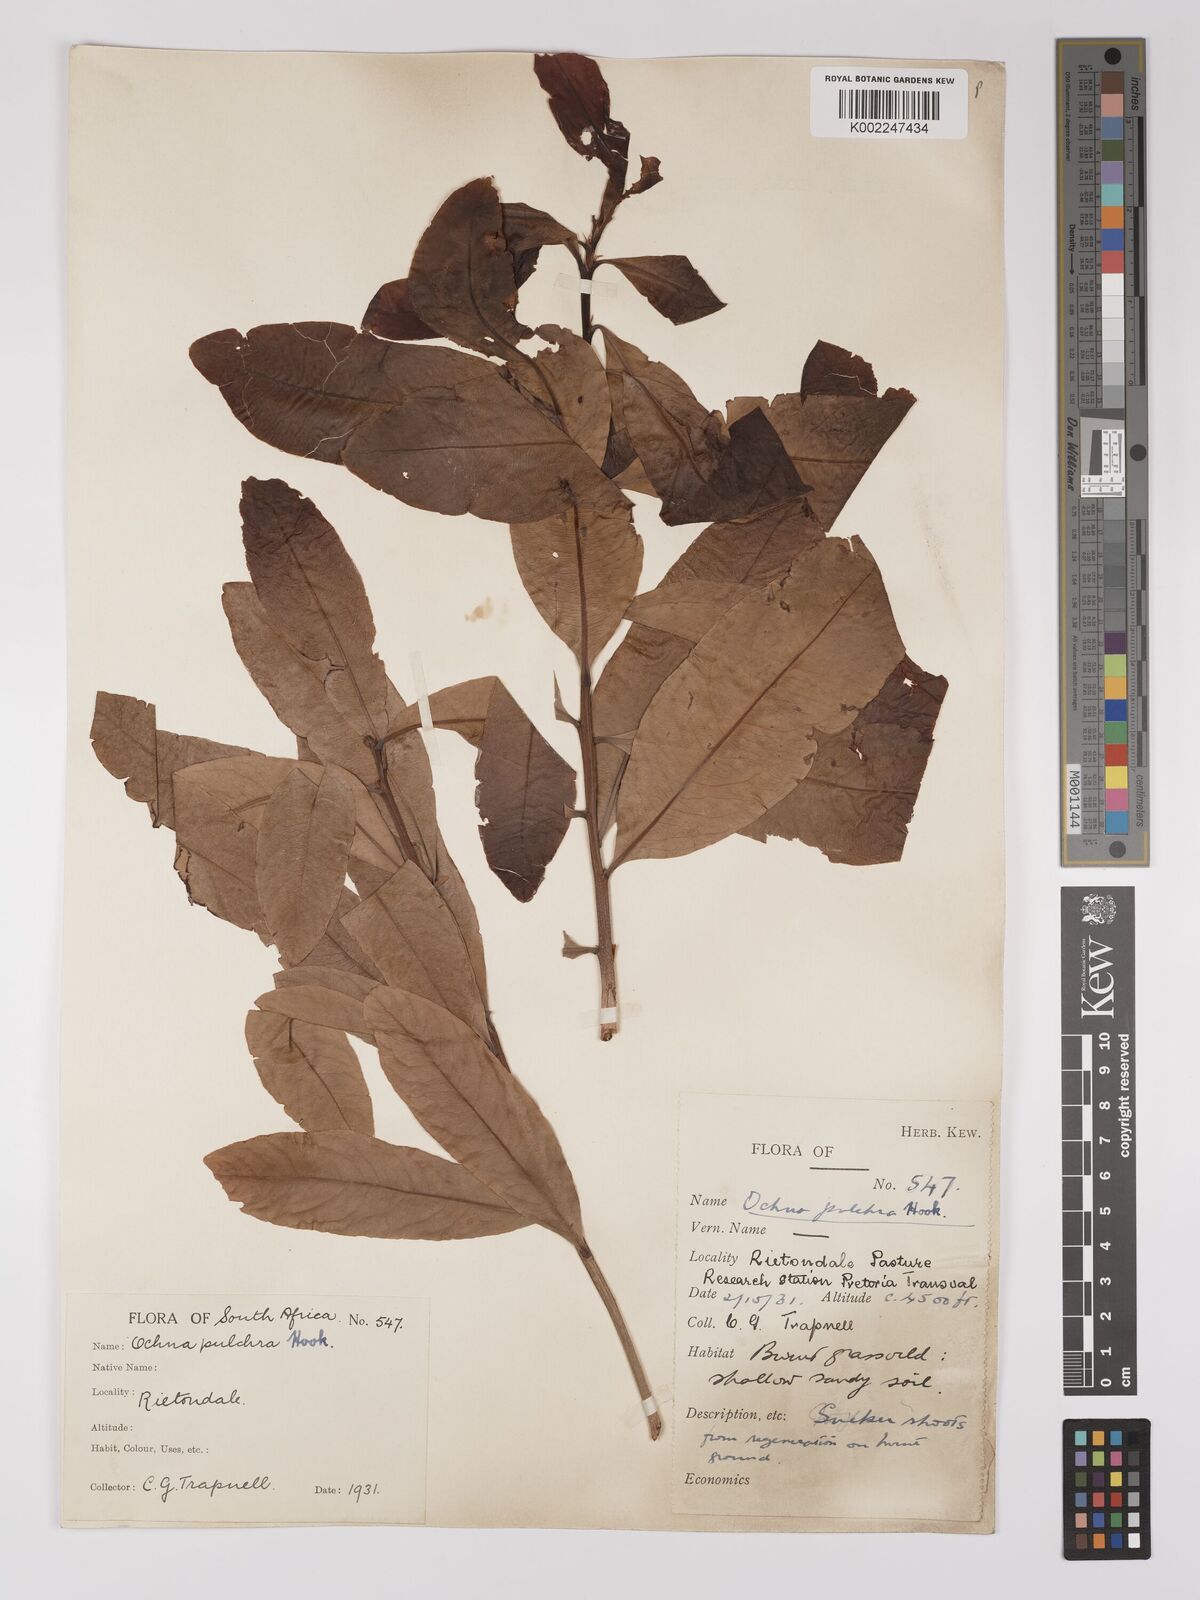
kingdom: Plantae
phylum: Tracheophyta
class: Magnoliopsida
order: Malpighiales
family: Ochnaceae
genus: Ochna
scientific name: Ochna pulchra
